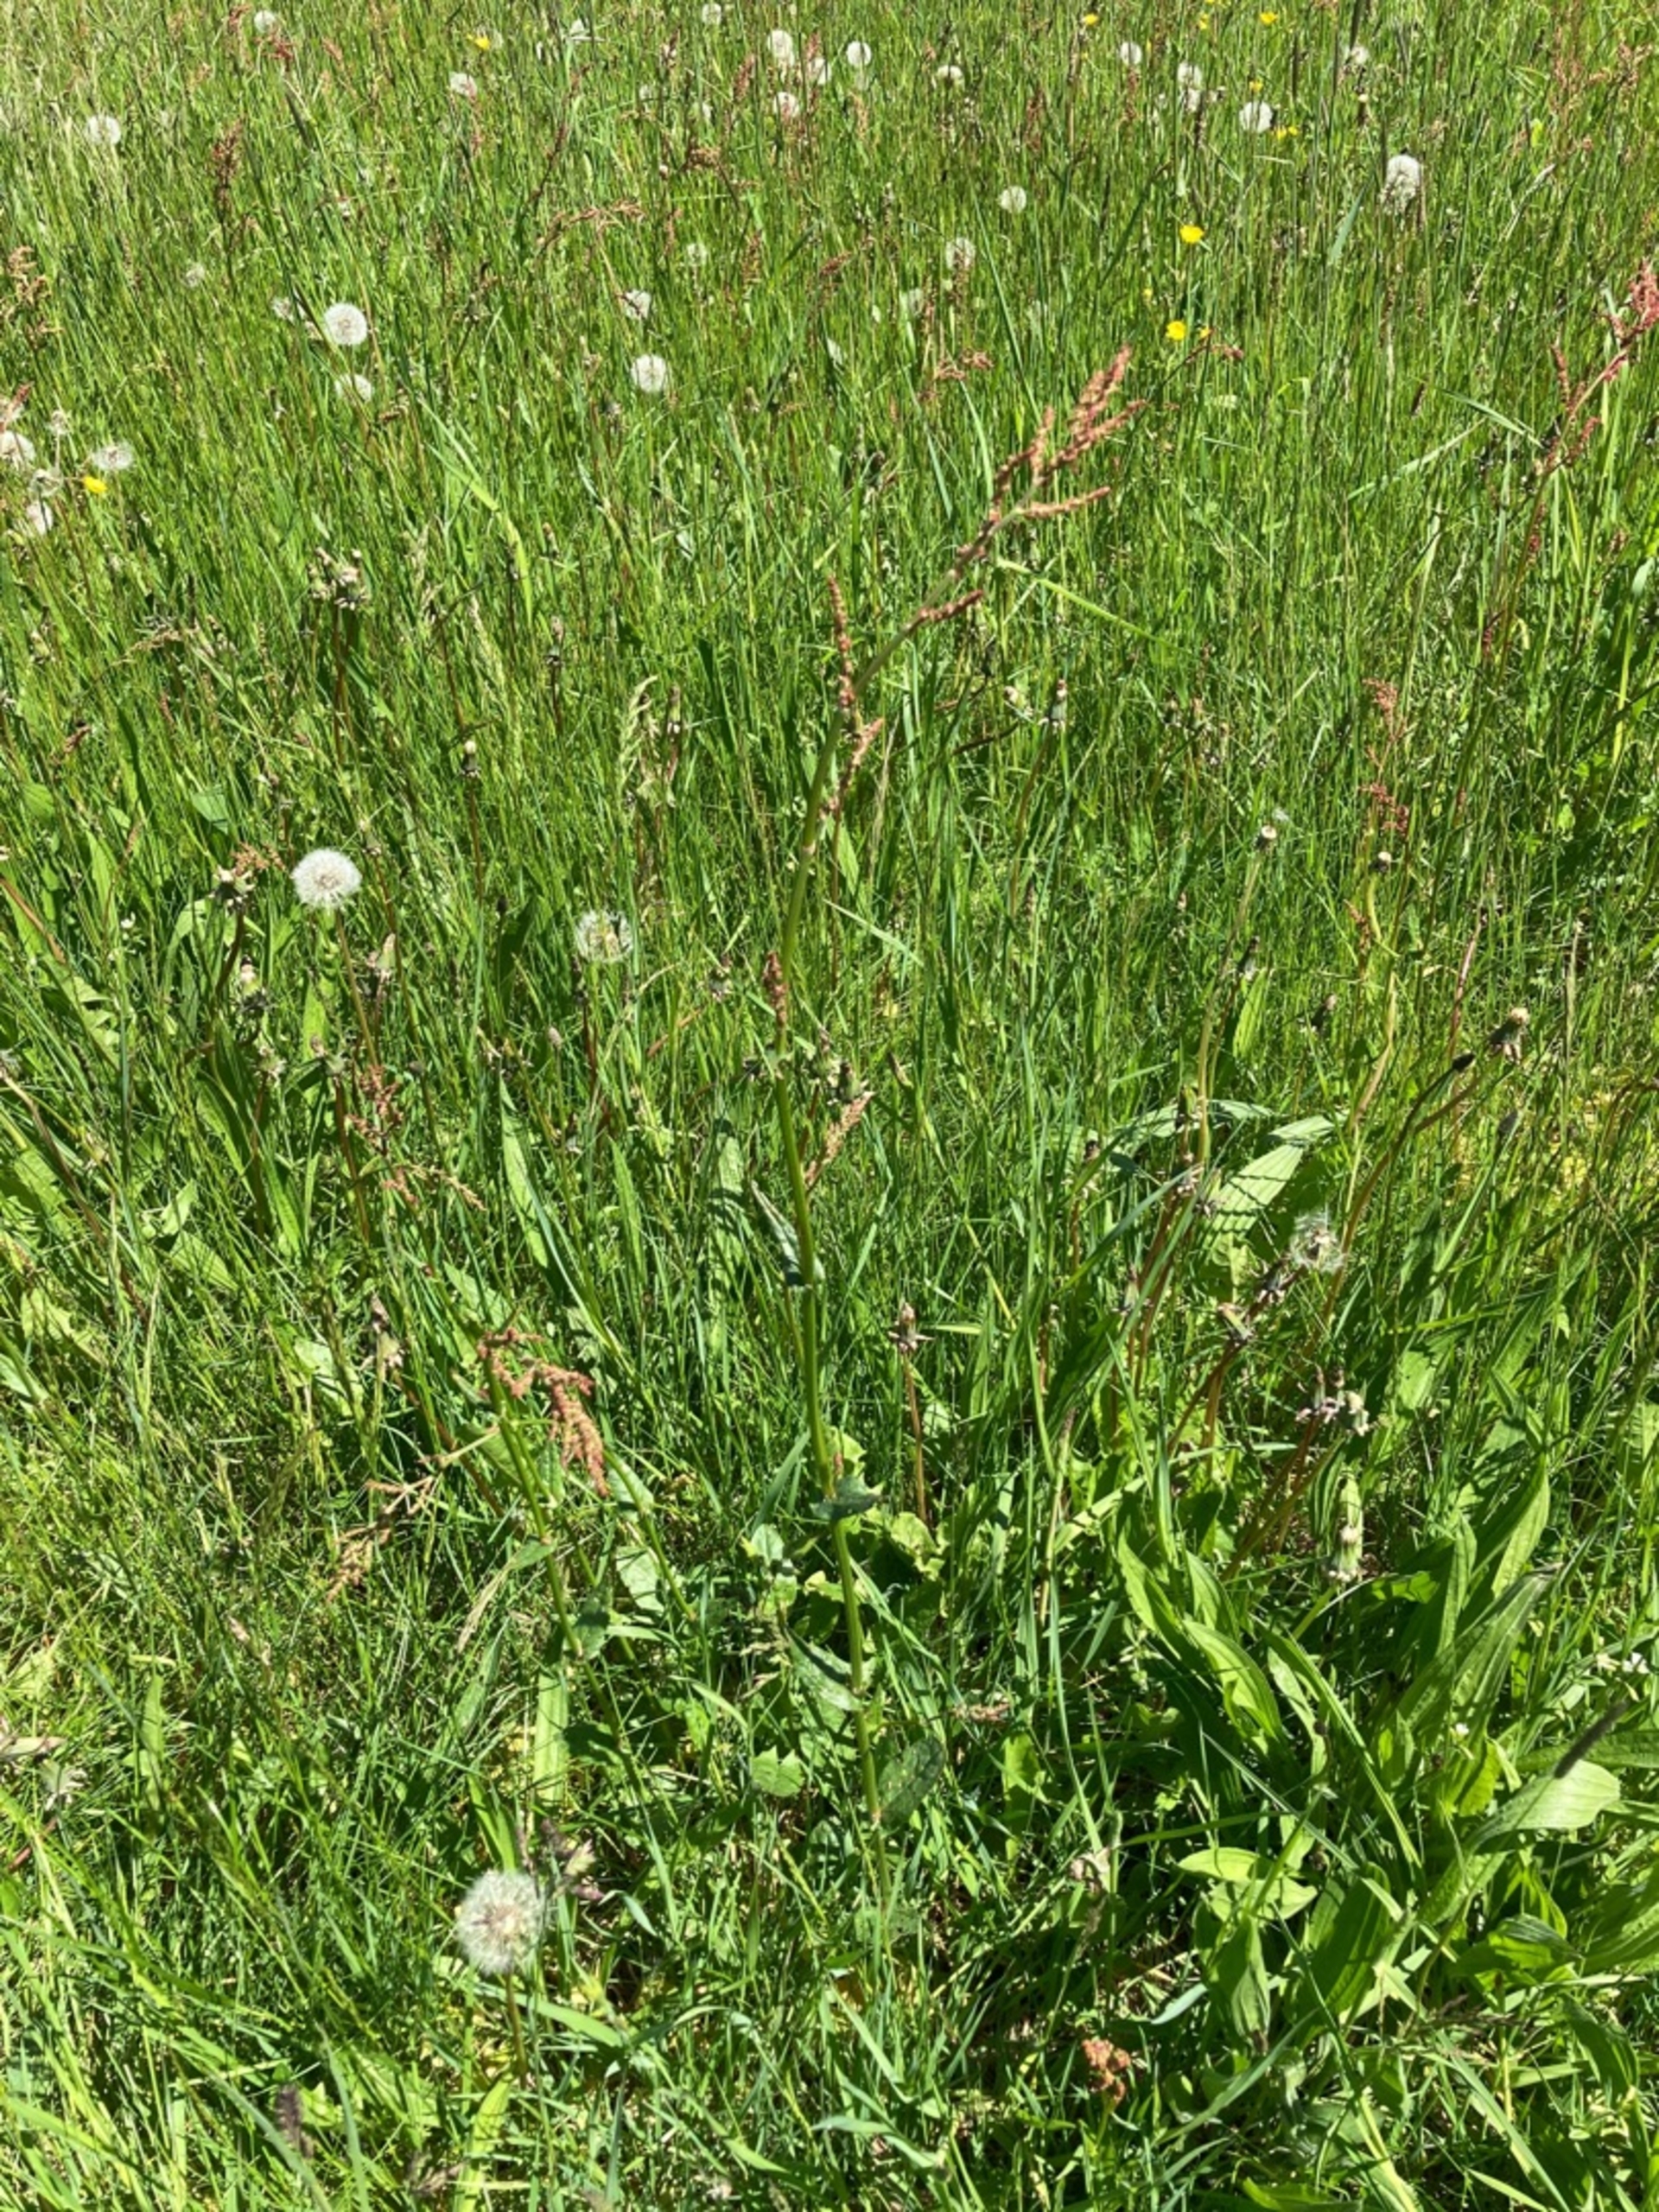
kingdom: Plantae
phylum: Tracheophyta
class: Magnoliopsida
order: Caryophyllales
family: Polygonaceae
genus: Rumex
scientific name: Rumex acetosa
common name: Almindelig syre
